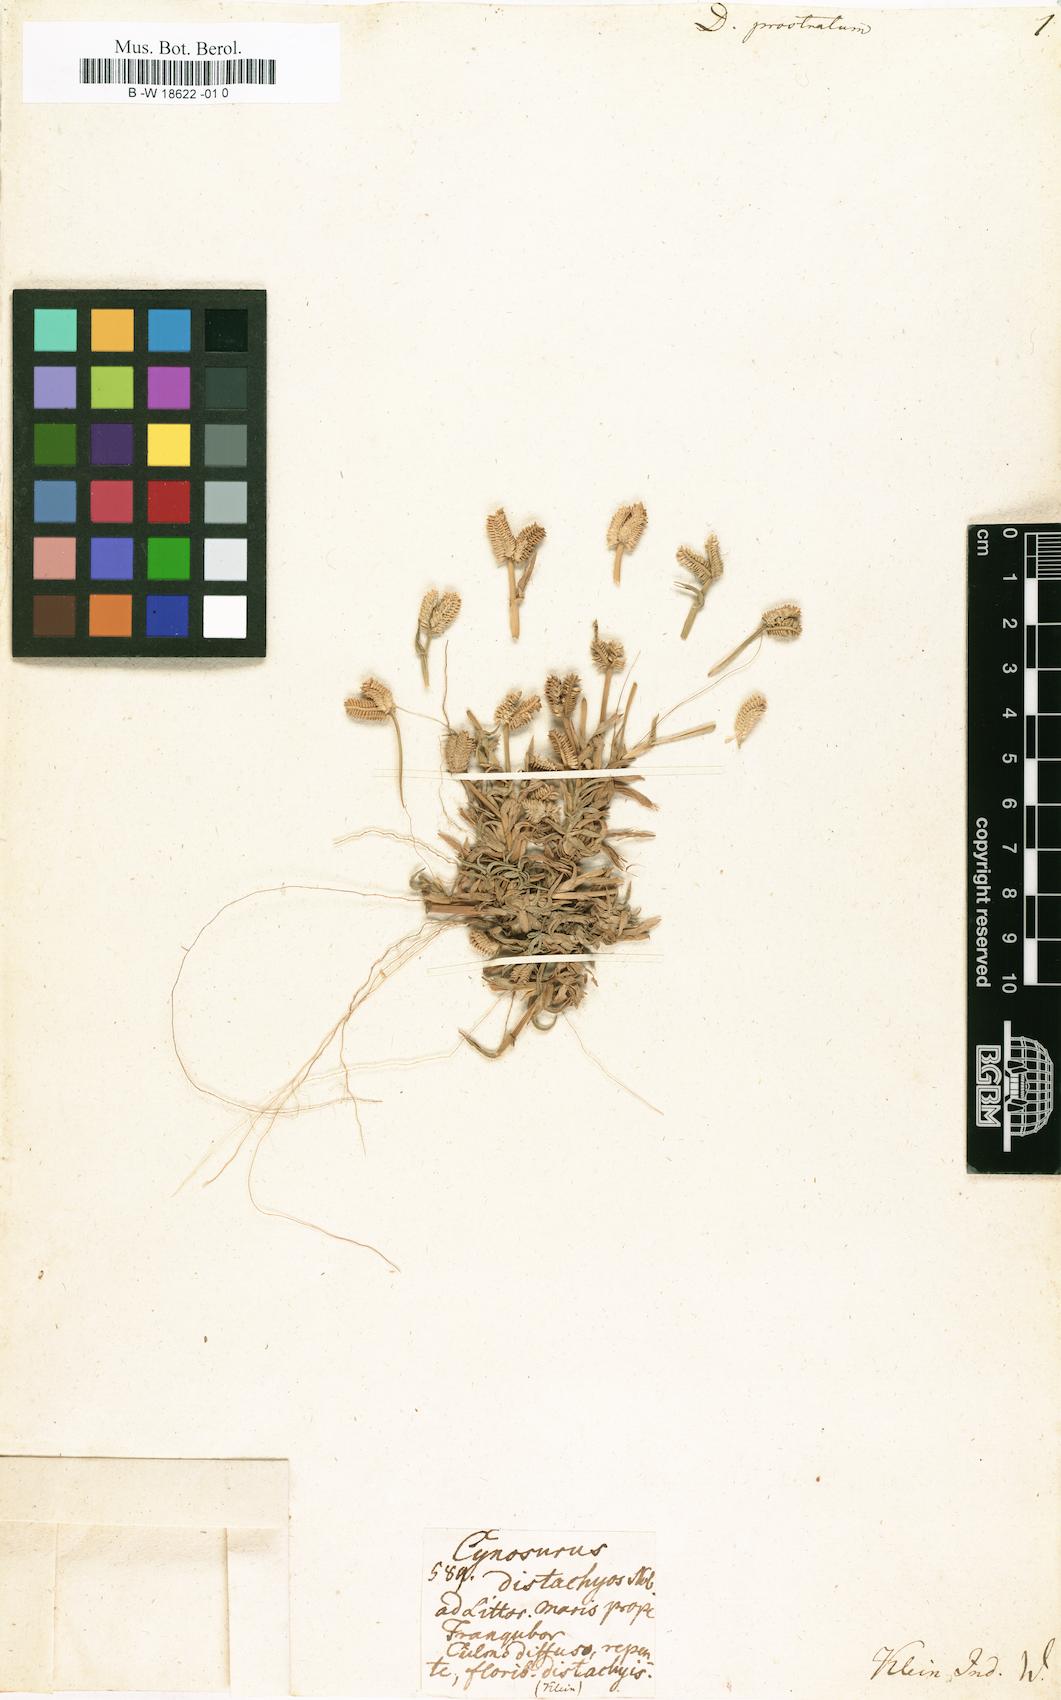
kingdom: Plantae
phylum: Tracheophyta
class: Liliopsida
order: Poales
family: Poaceae
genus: Dactyloctenium
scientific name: Dactyloctenium aegyptium
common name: Egyptian grass
